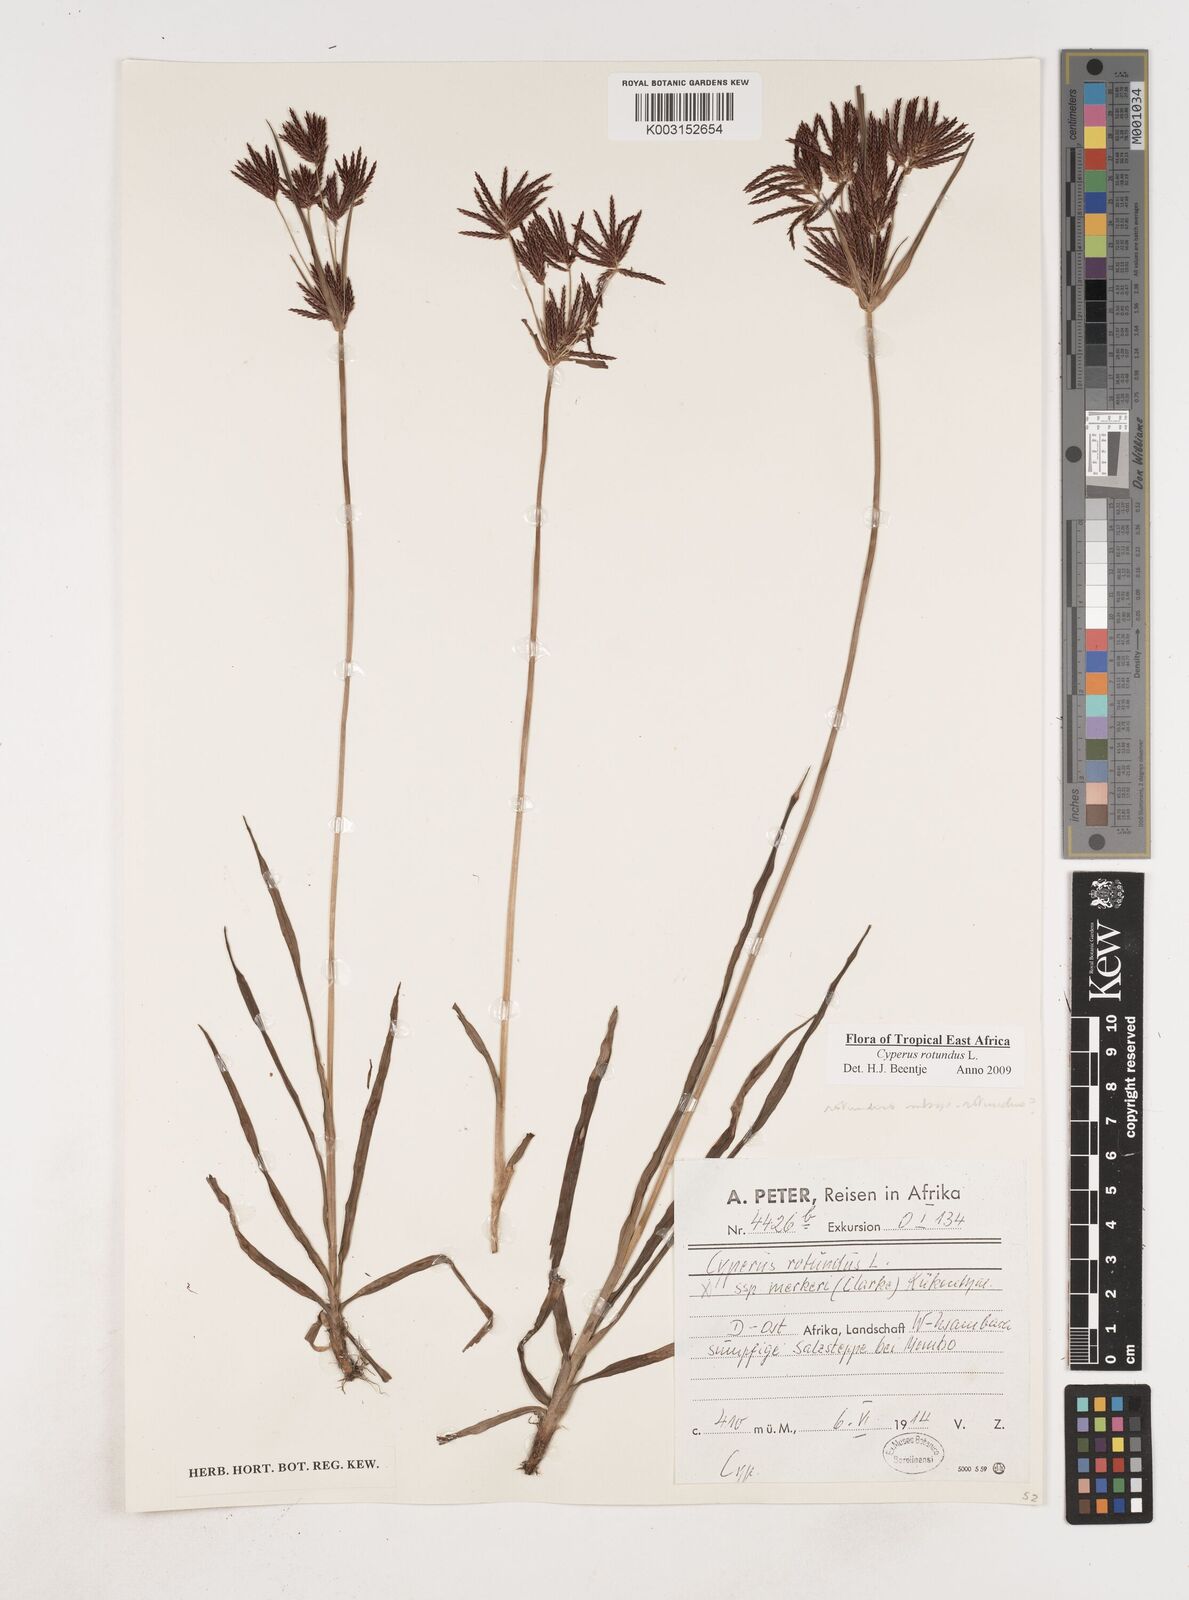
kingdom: Plantae
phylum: Tracheophyta
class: Liliopsida
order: Poales
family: Cyperaceae
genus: Cyperus
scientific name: Cyperus rotundus
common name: Nutgrass
